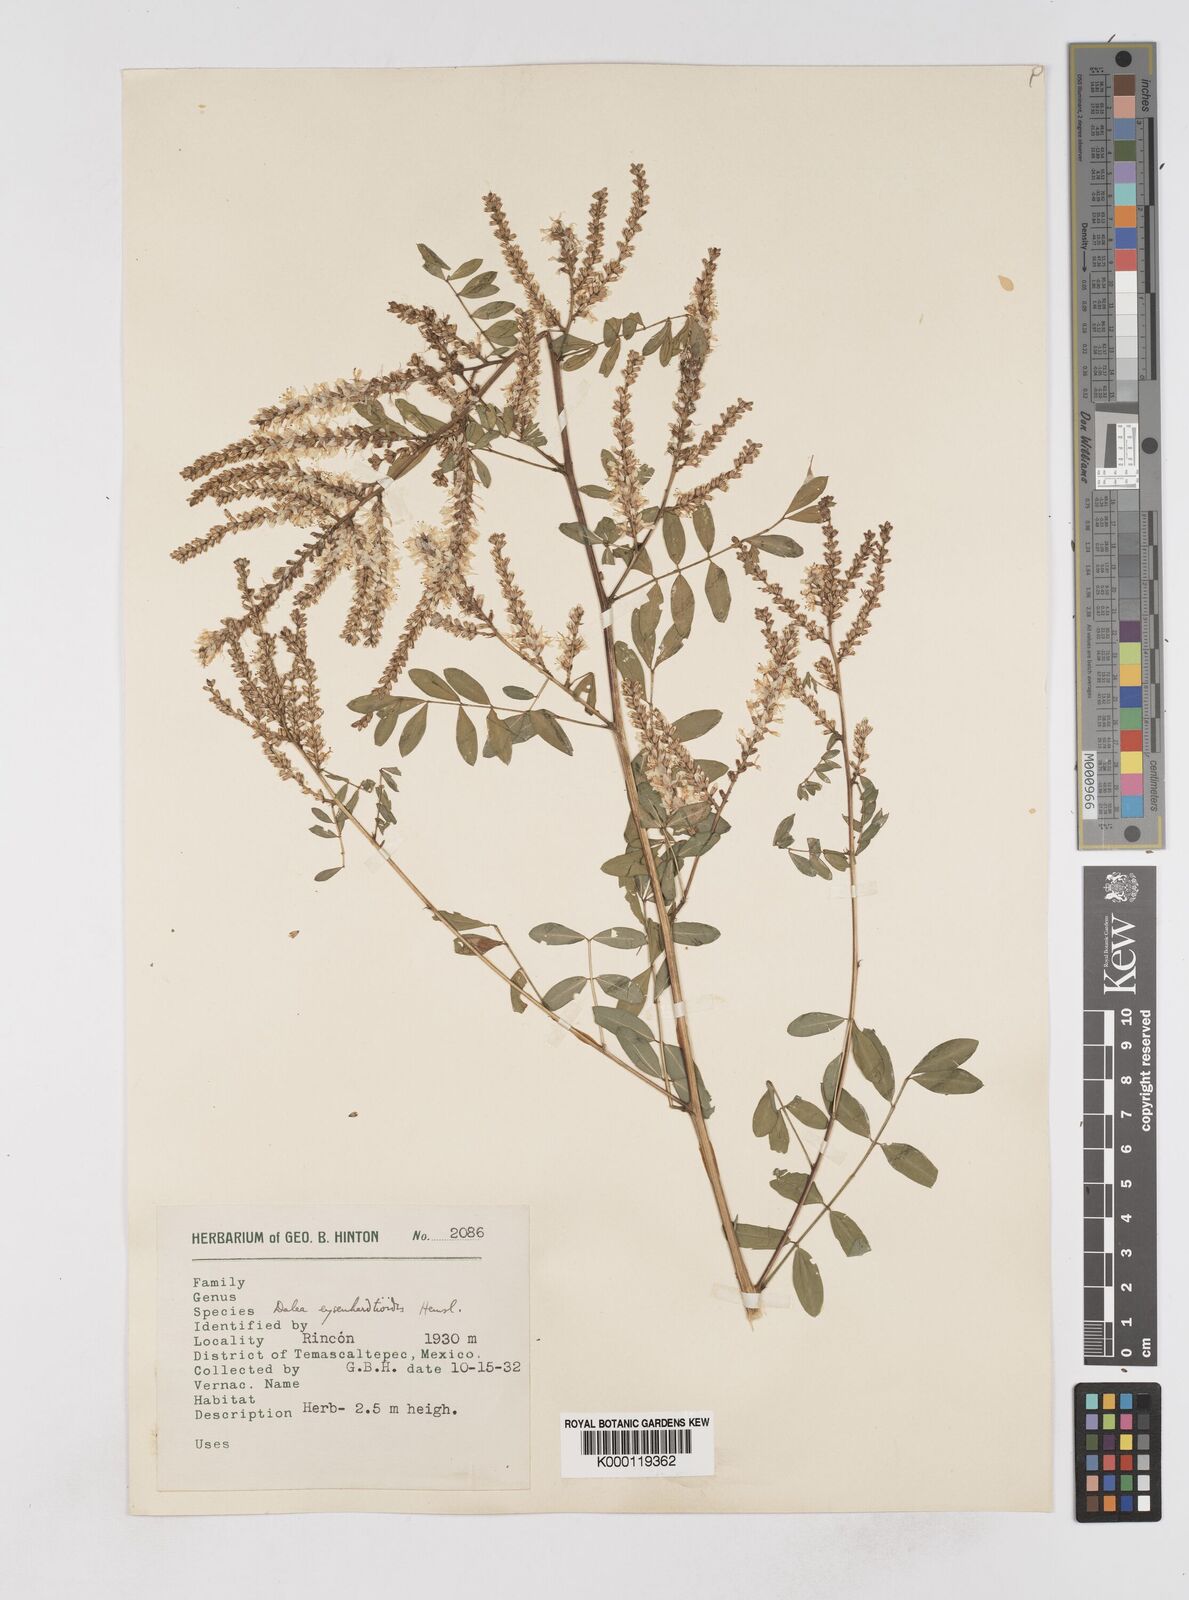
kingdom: Plantae
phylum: Tracheophyta
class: Magnoliopsida
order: Fabales
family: Fabaceae
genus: Dalea
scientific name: Dalea
